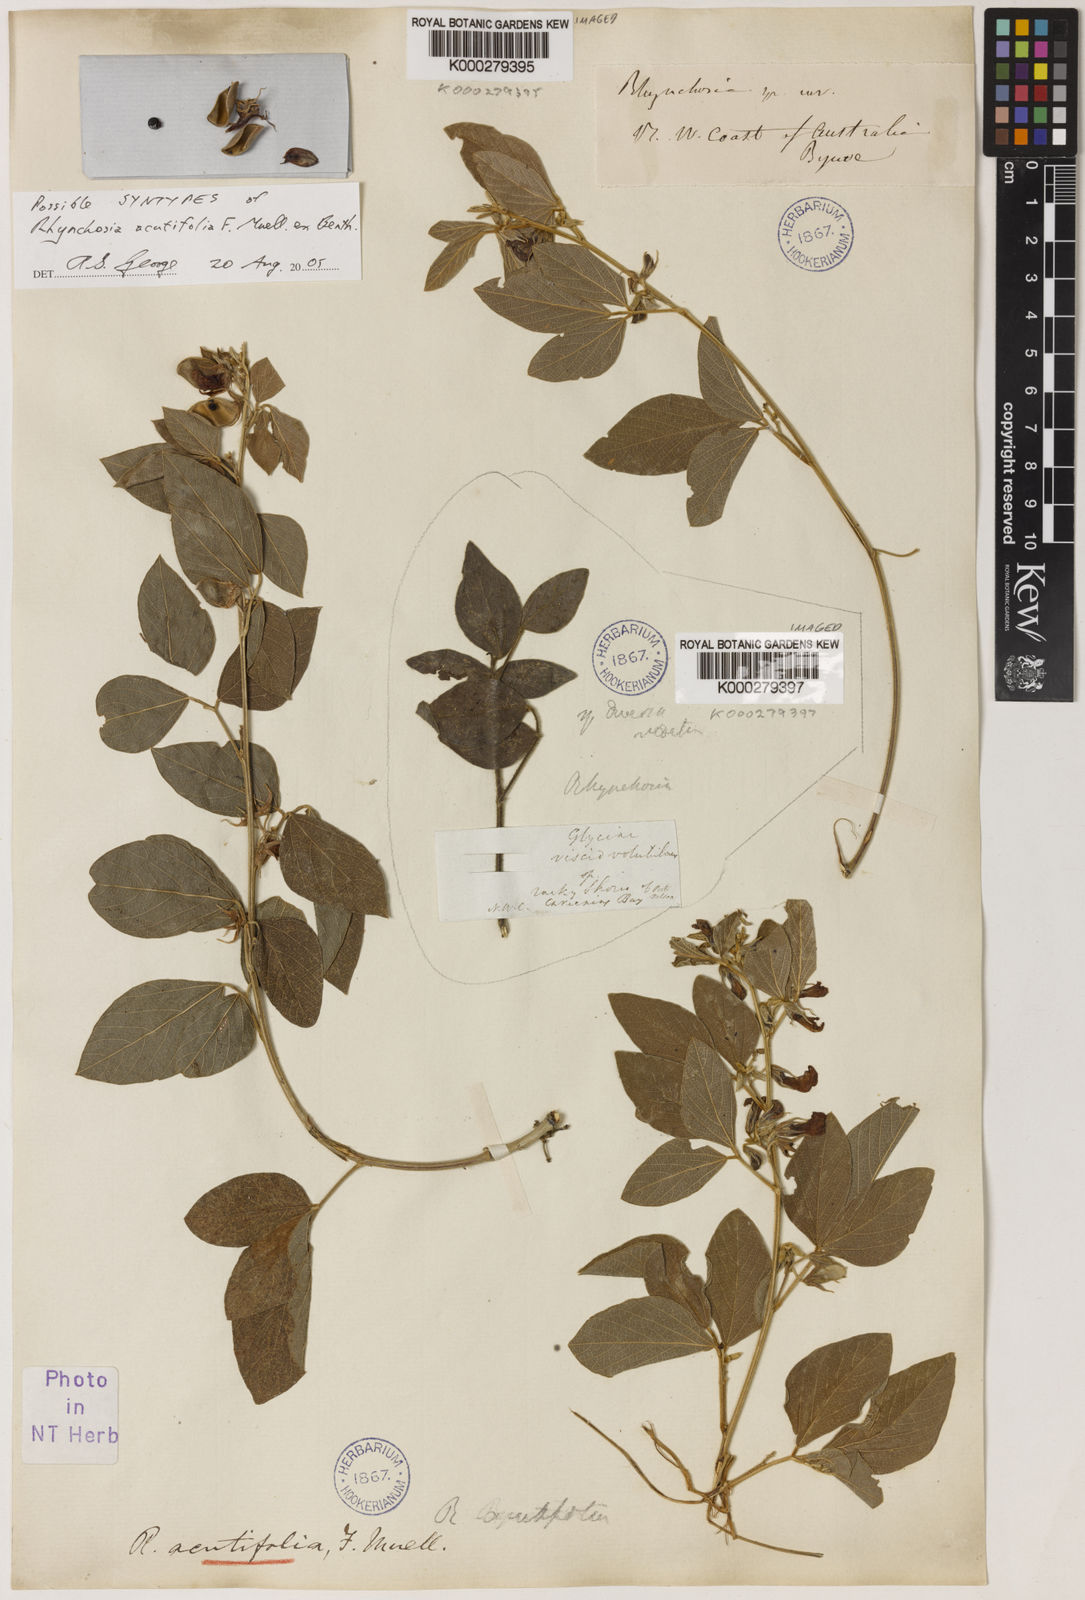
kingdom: Plantae
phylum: Tracheophyta
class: Magnoliopsida
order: Fabales
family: Fabaceae
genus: Cajanus
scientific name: Cajanus acutifolius
